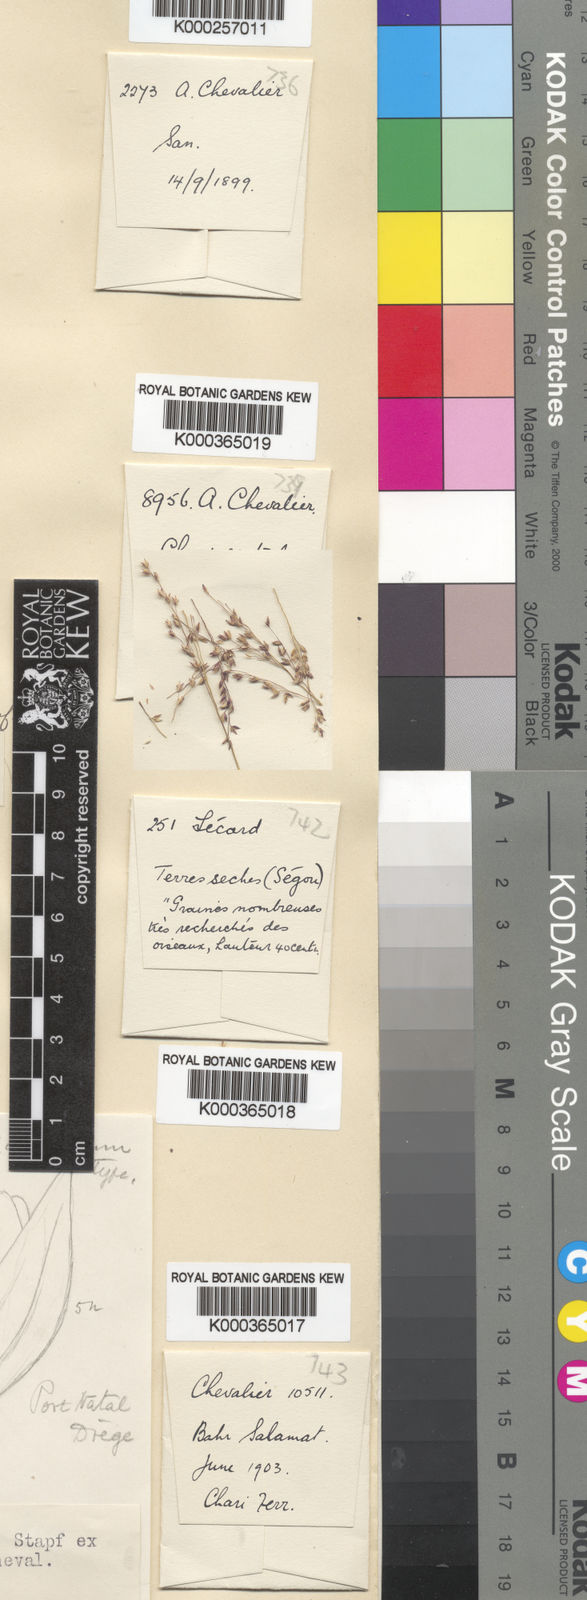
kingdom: Plantae
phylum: Tracheophyta
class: Liliopsida
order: Poales
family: Poaceae
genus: Panicum
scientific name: Panicum fluviicola
